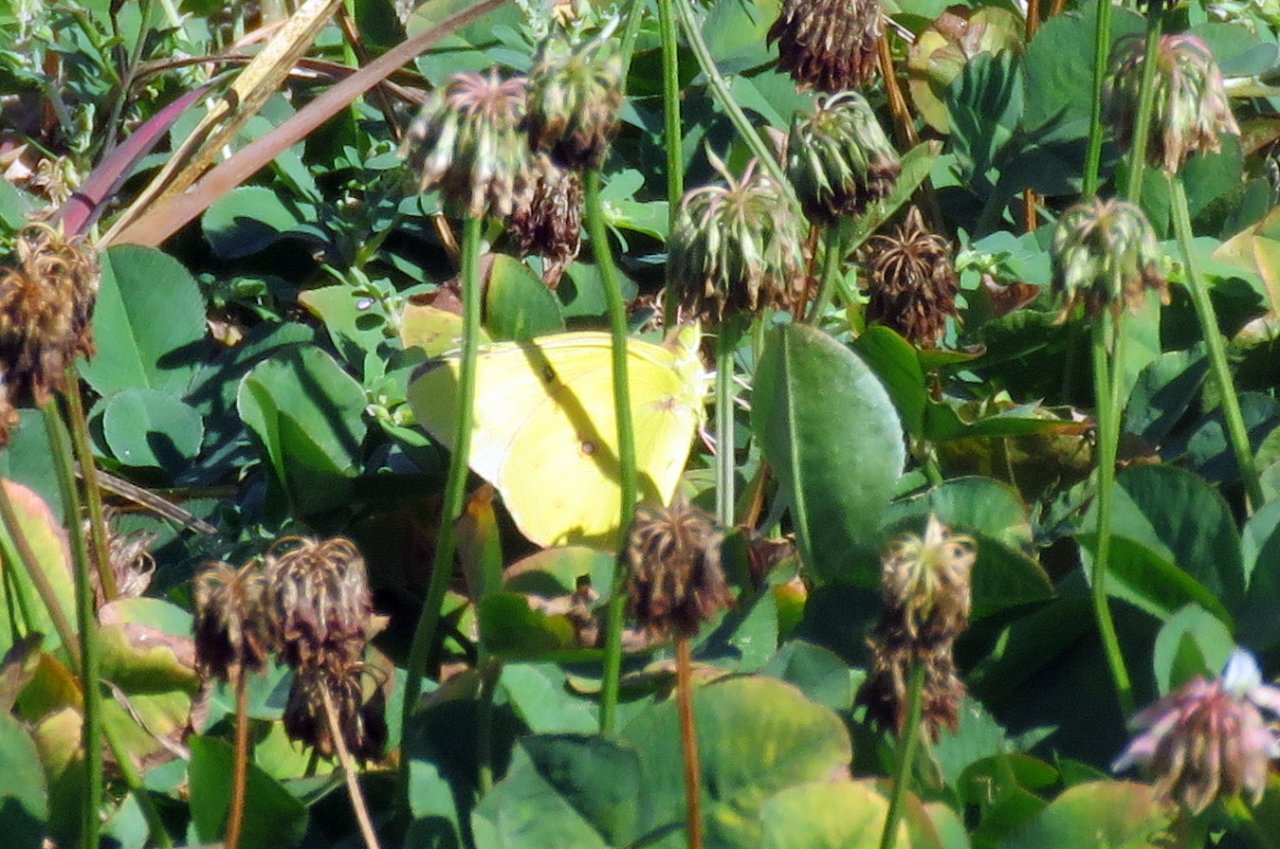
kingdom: Animalia
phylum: Arthropoda
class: Insecta
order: Lepidoptera
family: Pieridae
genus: Colias
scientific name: Colias philodice
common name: Clouded Sulphur
